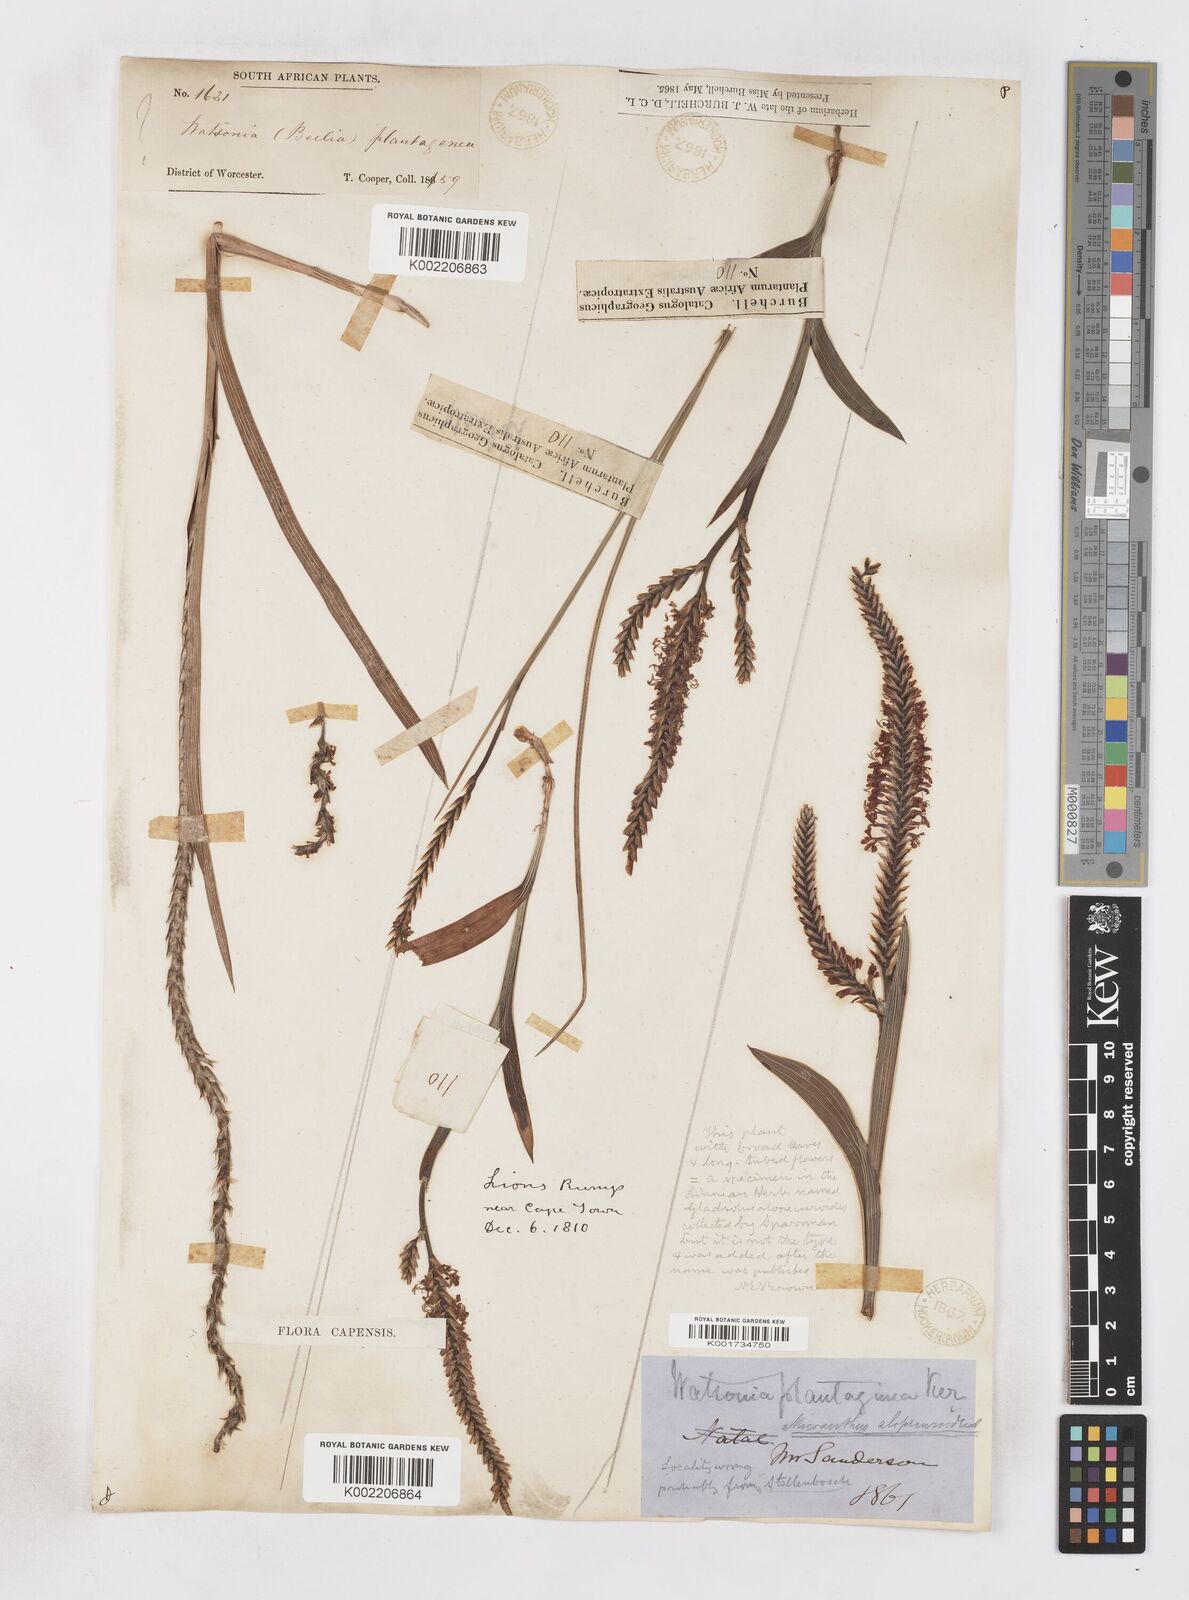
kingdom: Plantae
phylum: Tracheophyta
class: Liliopsida
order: Asparagales
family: Iridaceae
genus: Micranthus
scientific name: Micranthus plantagineus
